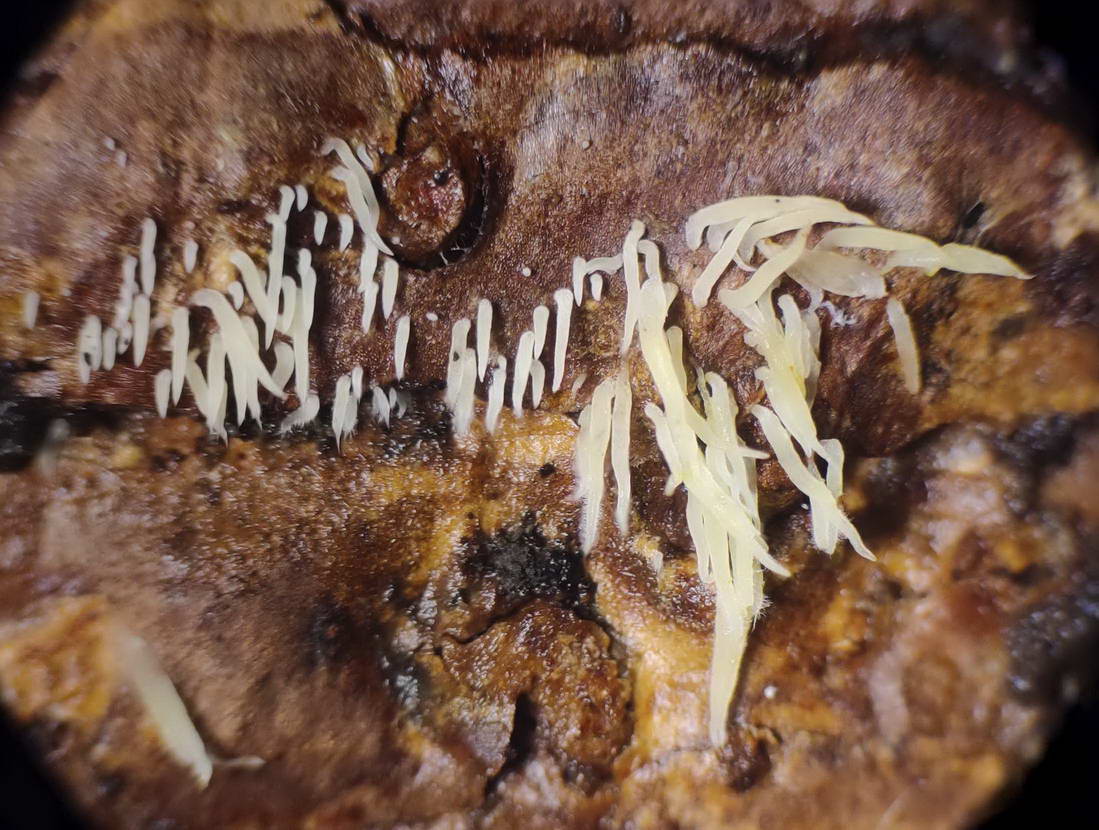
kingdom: Fungi
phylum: Basidiomycota
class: Agaricomycetes
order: Agaricales
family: Clavariaceae
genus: Mucronella
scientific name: Mucronella
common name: hængepig
